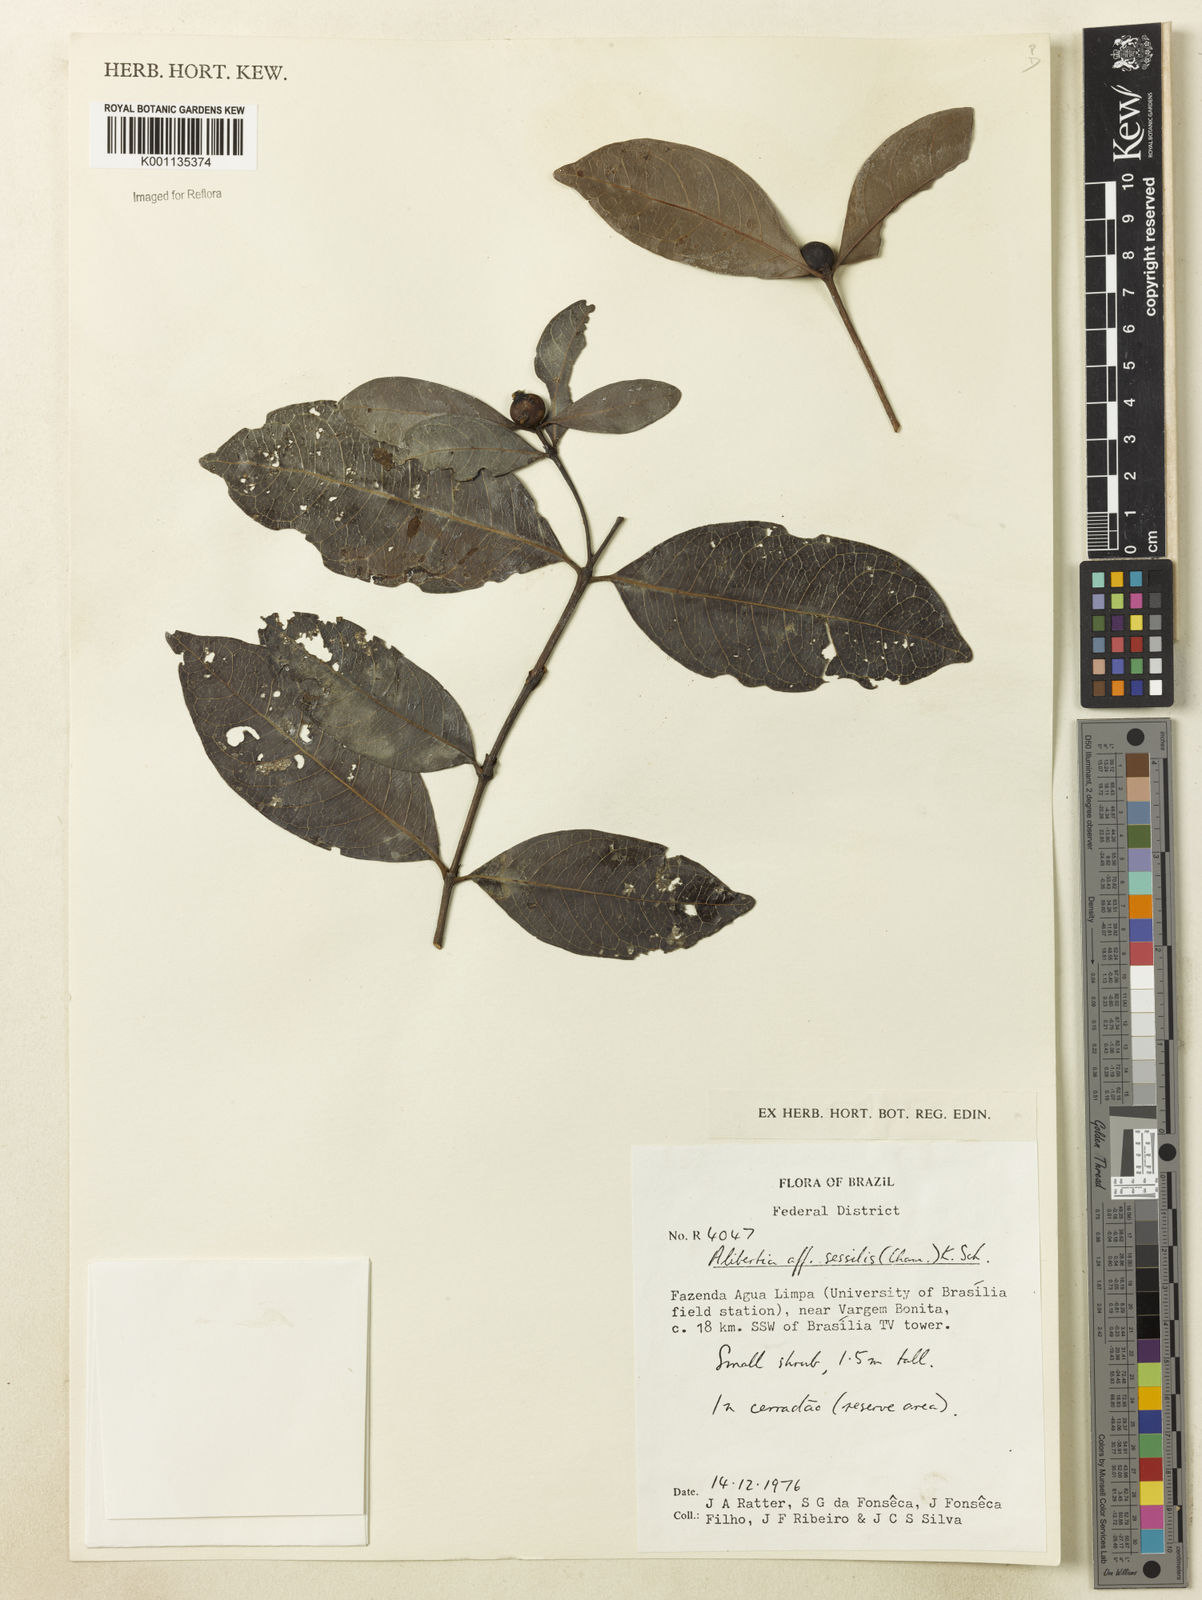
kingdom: Plantae
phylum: Tracheophyta
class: Magnoliopsida
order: Gentianales
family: Rubiaceae
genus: Cordiera
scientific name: Cordiera humilis
